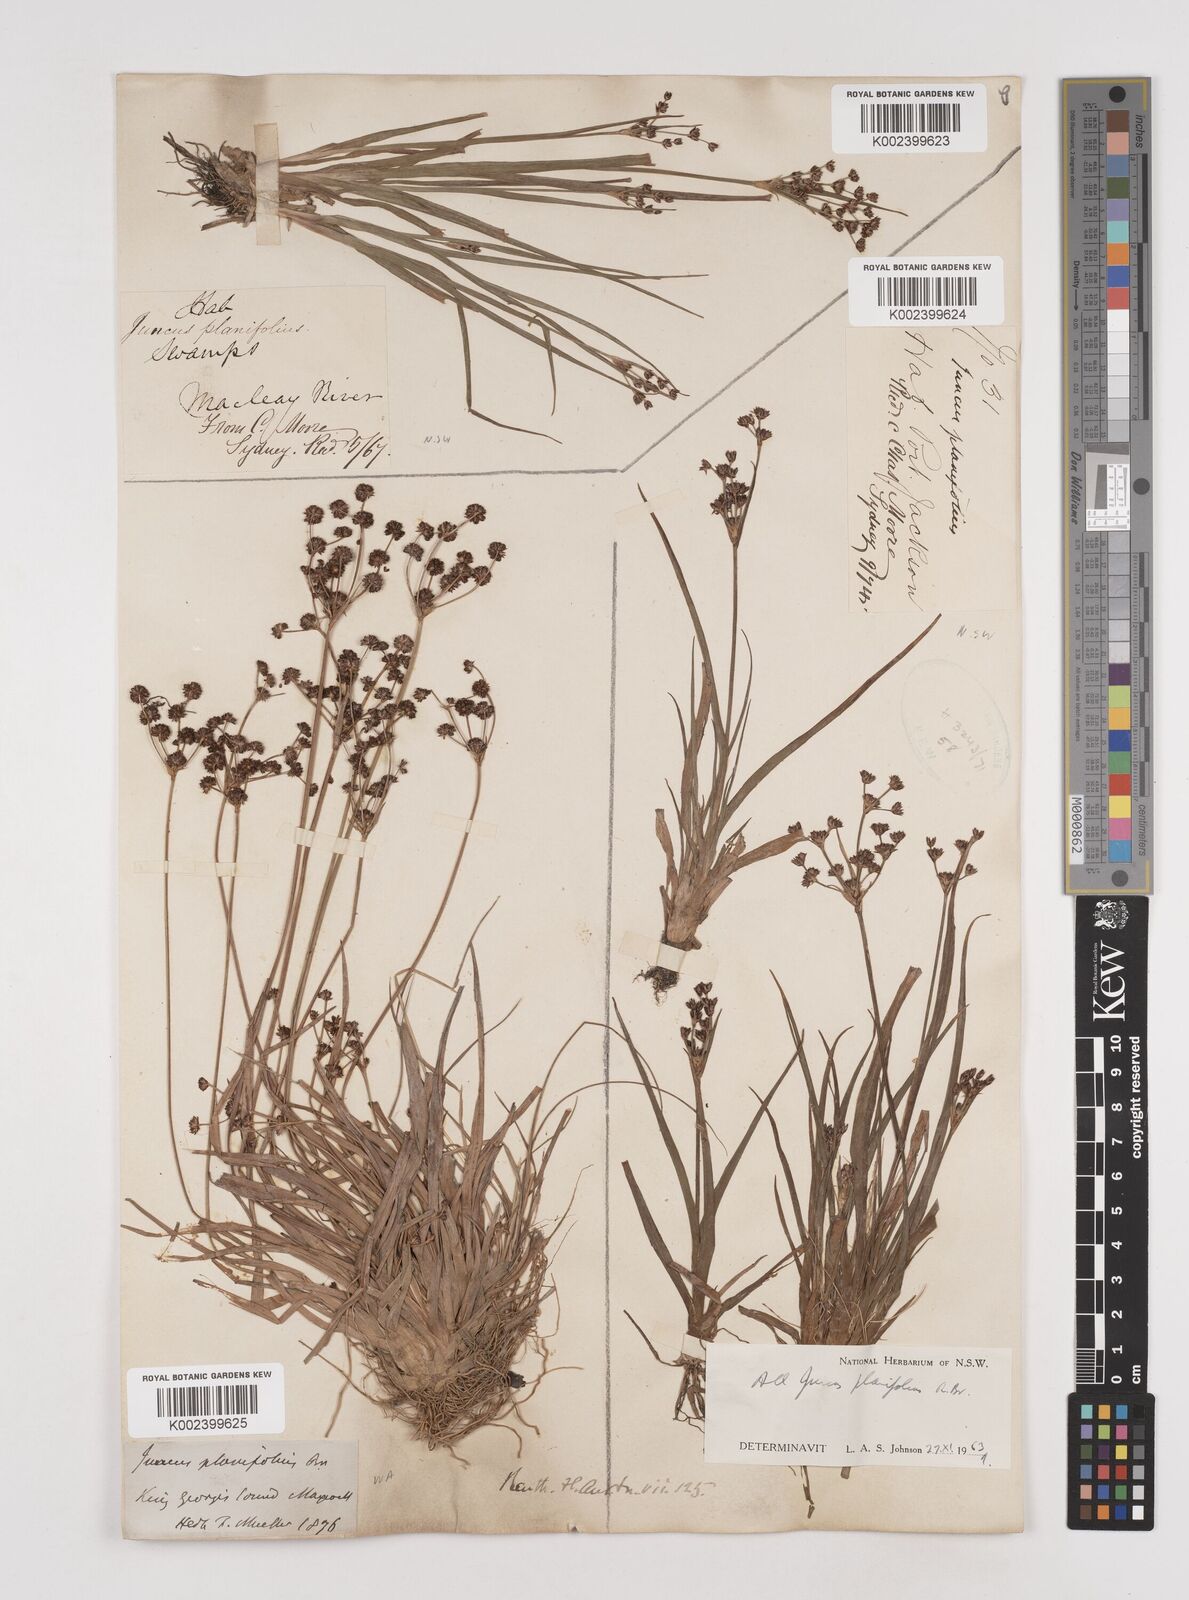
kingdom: Plantae
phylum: Tracheophyta
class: Liliopsida
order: Poales
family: Juncaceae
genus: Juncus
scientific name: Juncus planifolius
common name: Broadleaf rush
